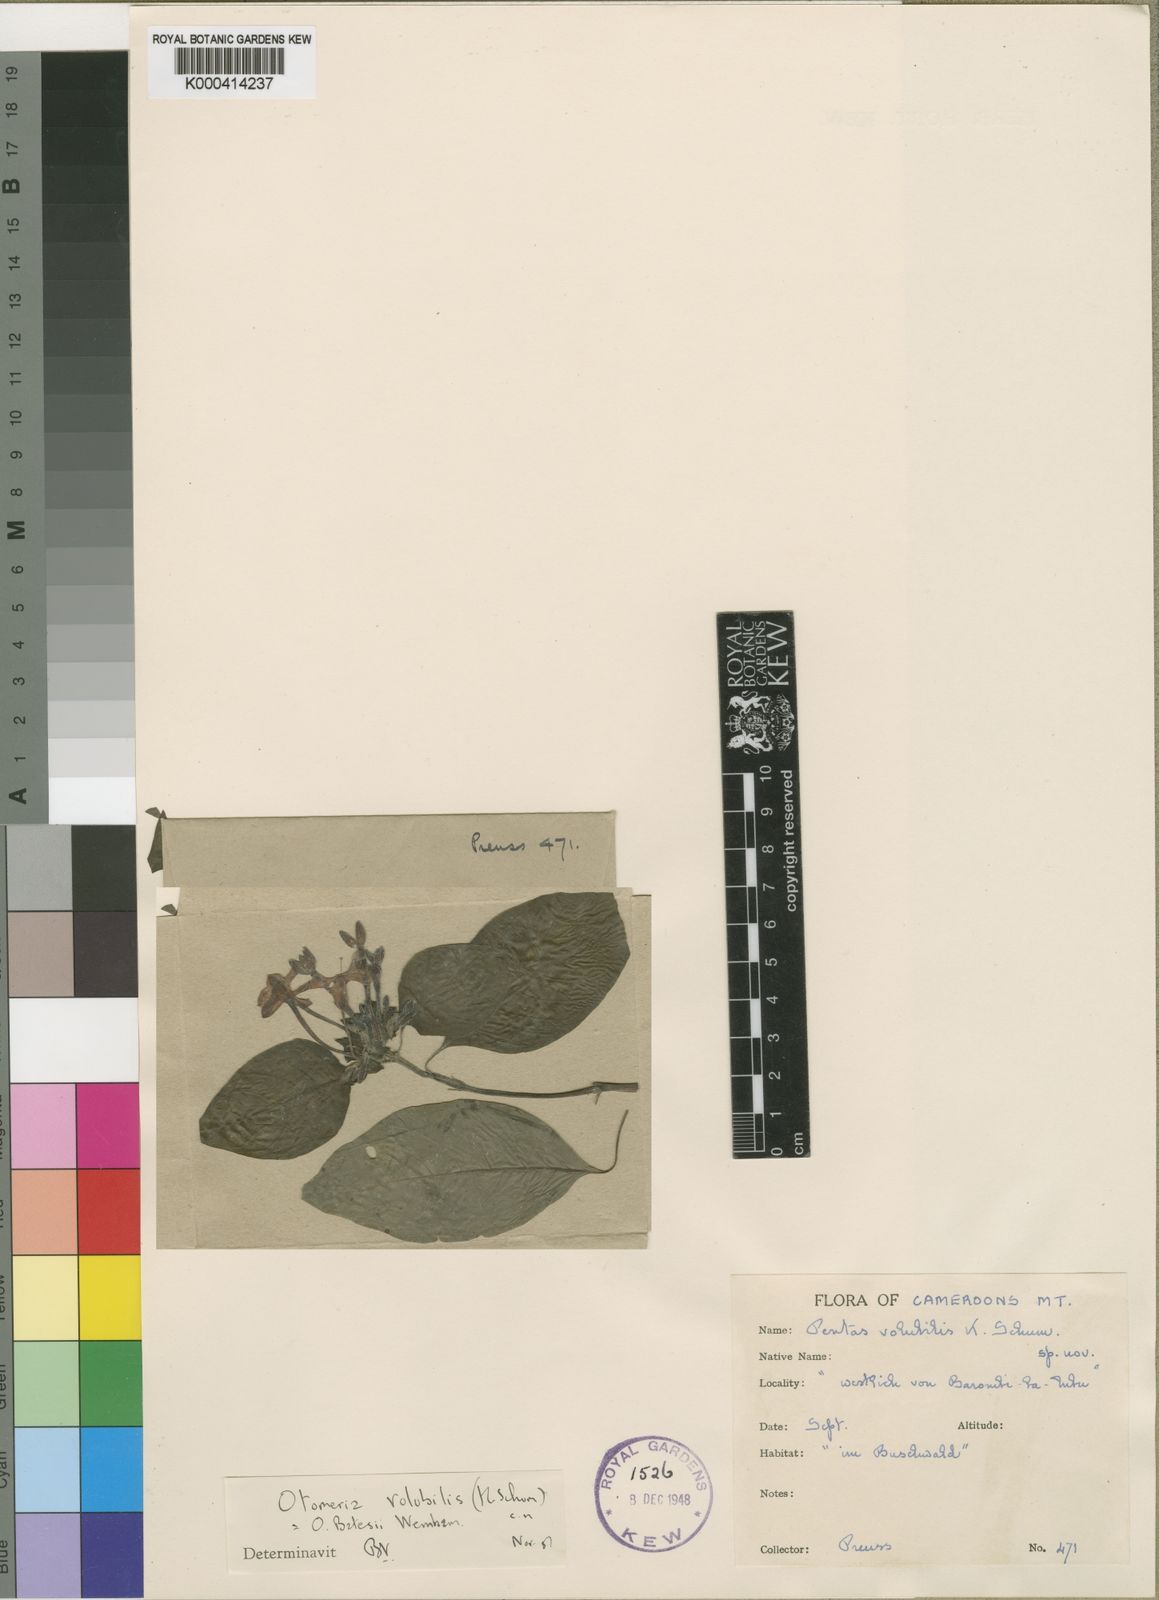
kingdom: Plantae
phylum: Tracheophyta
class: Magnoliopsida
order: Gentianales
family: Rubiaceae
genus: Otomeria
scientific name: Otomeria volubilis
